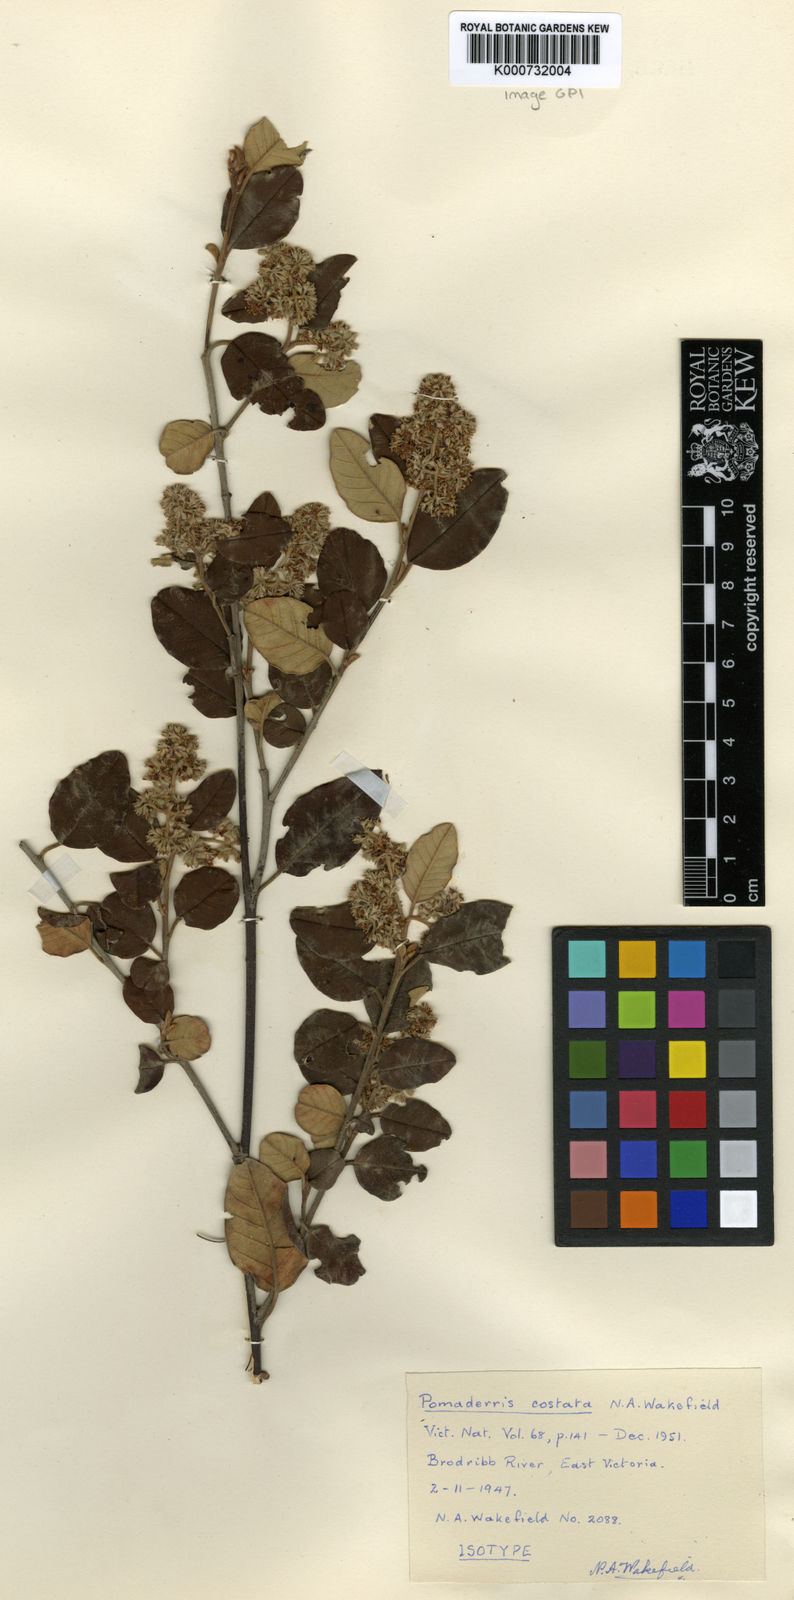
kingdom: Plantae
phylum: Tracheophyta
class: Magnoliopsida
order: Rosales
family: Rhamnaceae
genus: Pomaderris
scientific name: Pomaderris costata
